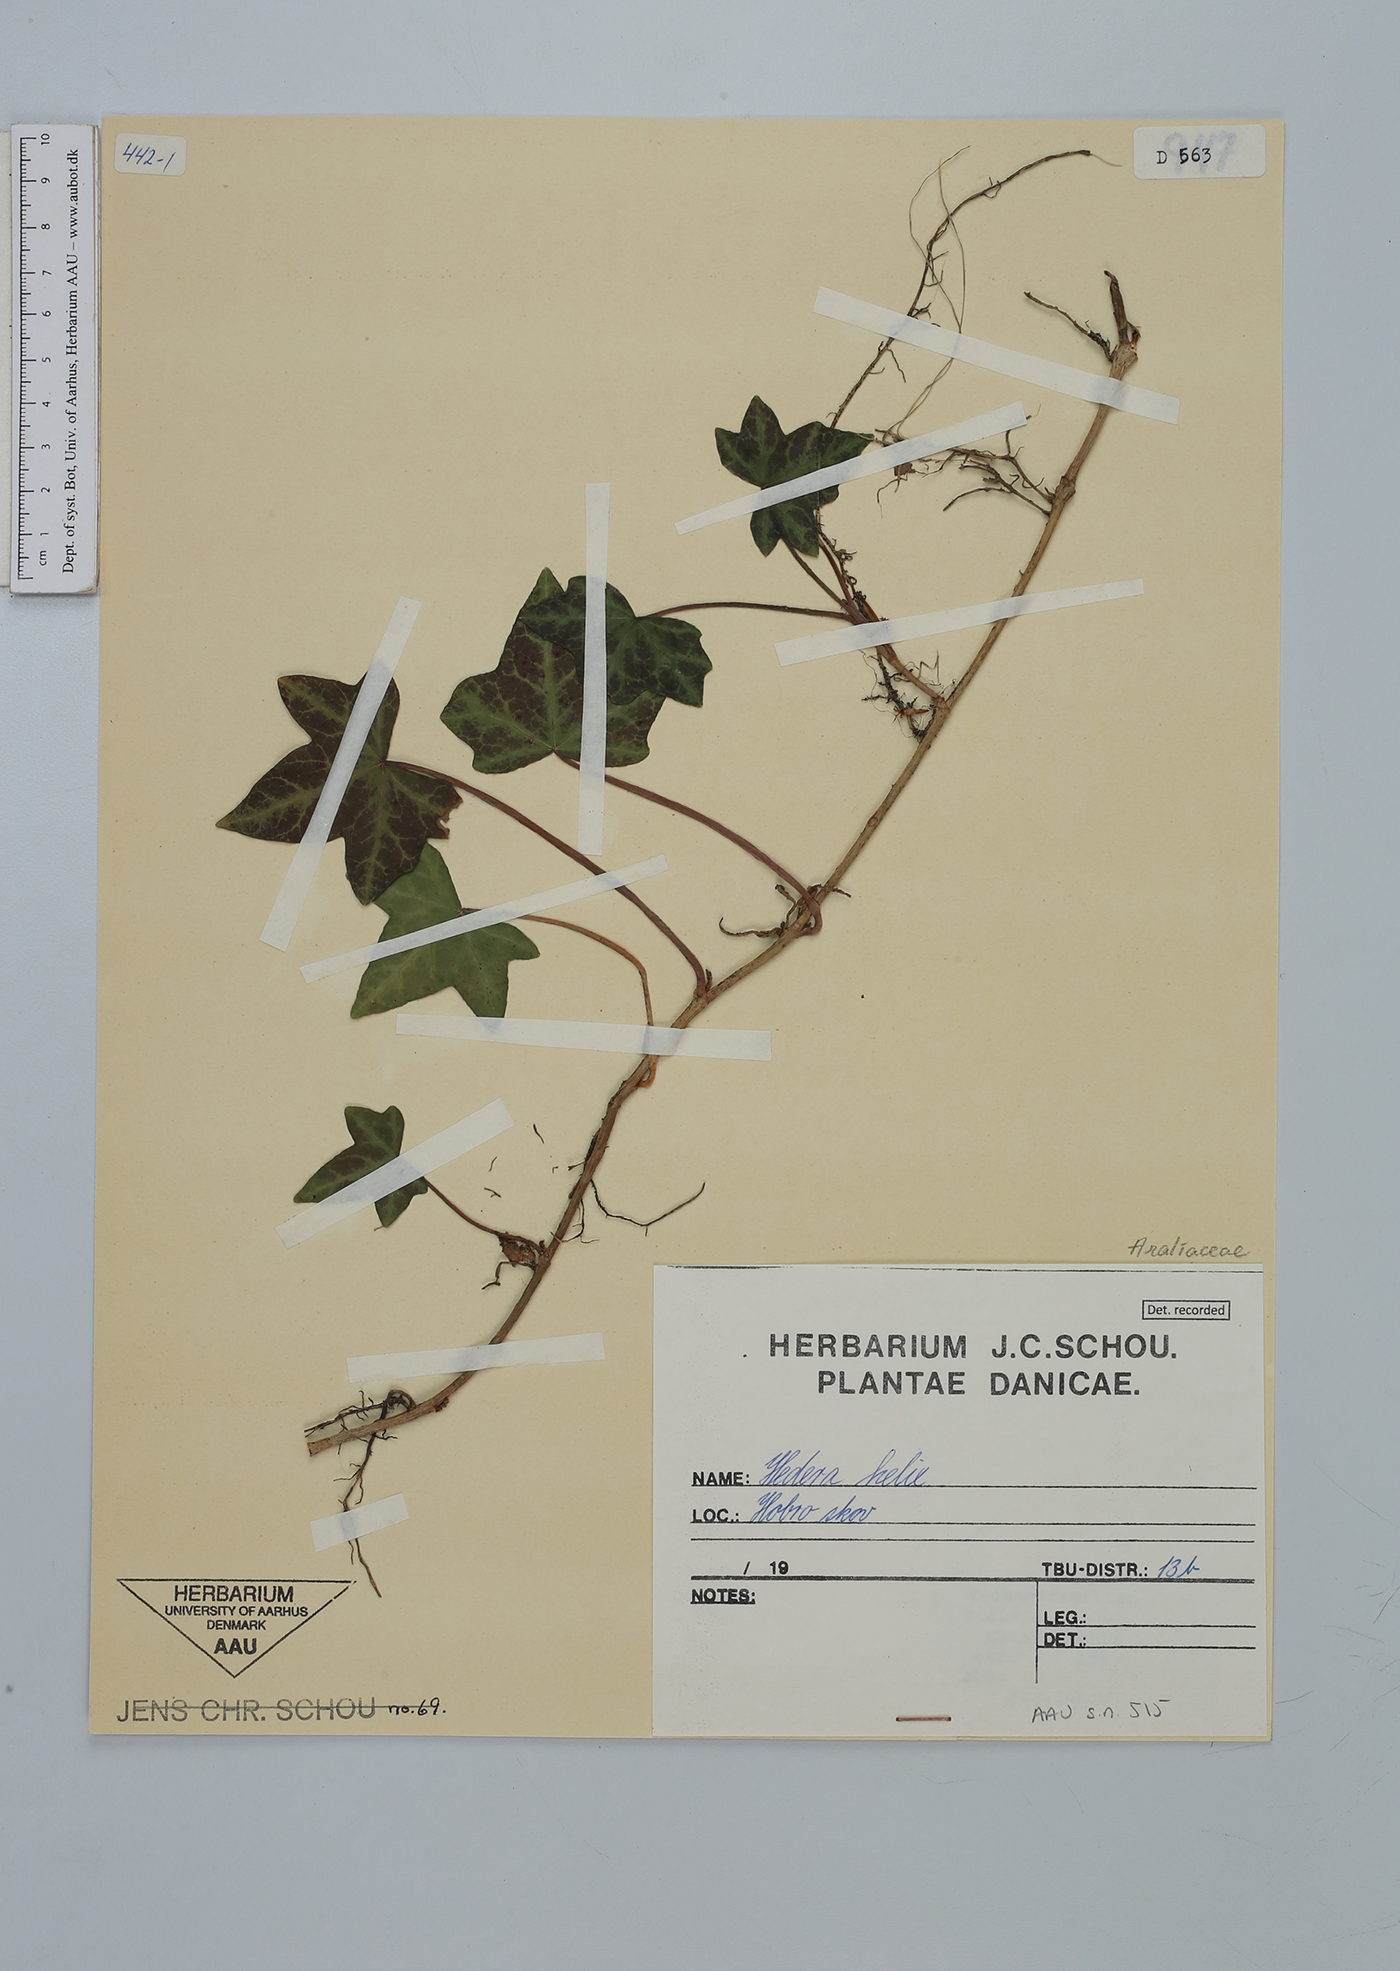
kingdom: Plantae
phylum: Tracheophyta
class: Magnoliopsida
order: Apiales
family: Araliaceae
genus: Hedera
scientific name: Hedera helix
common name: Ivy
